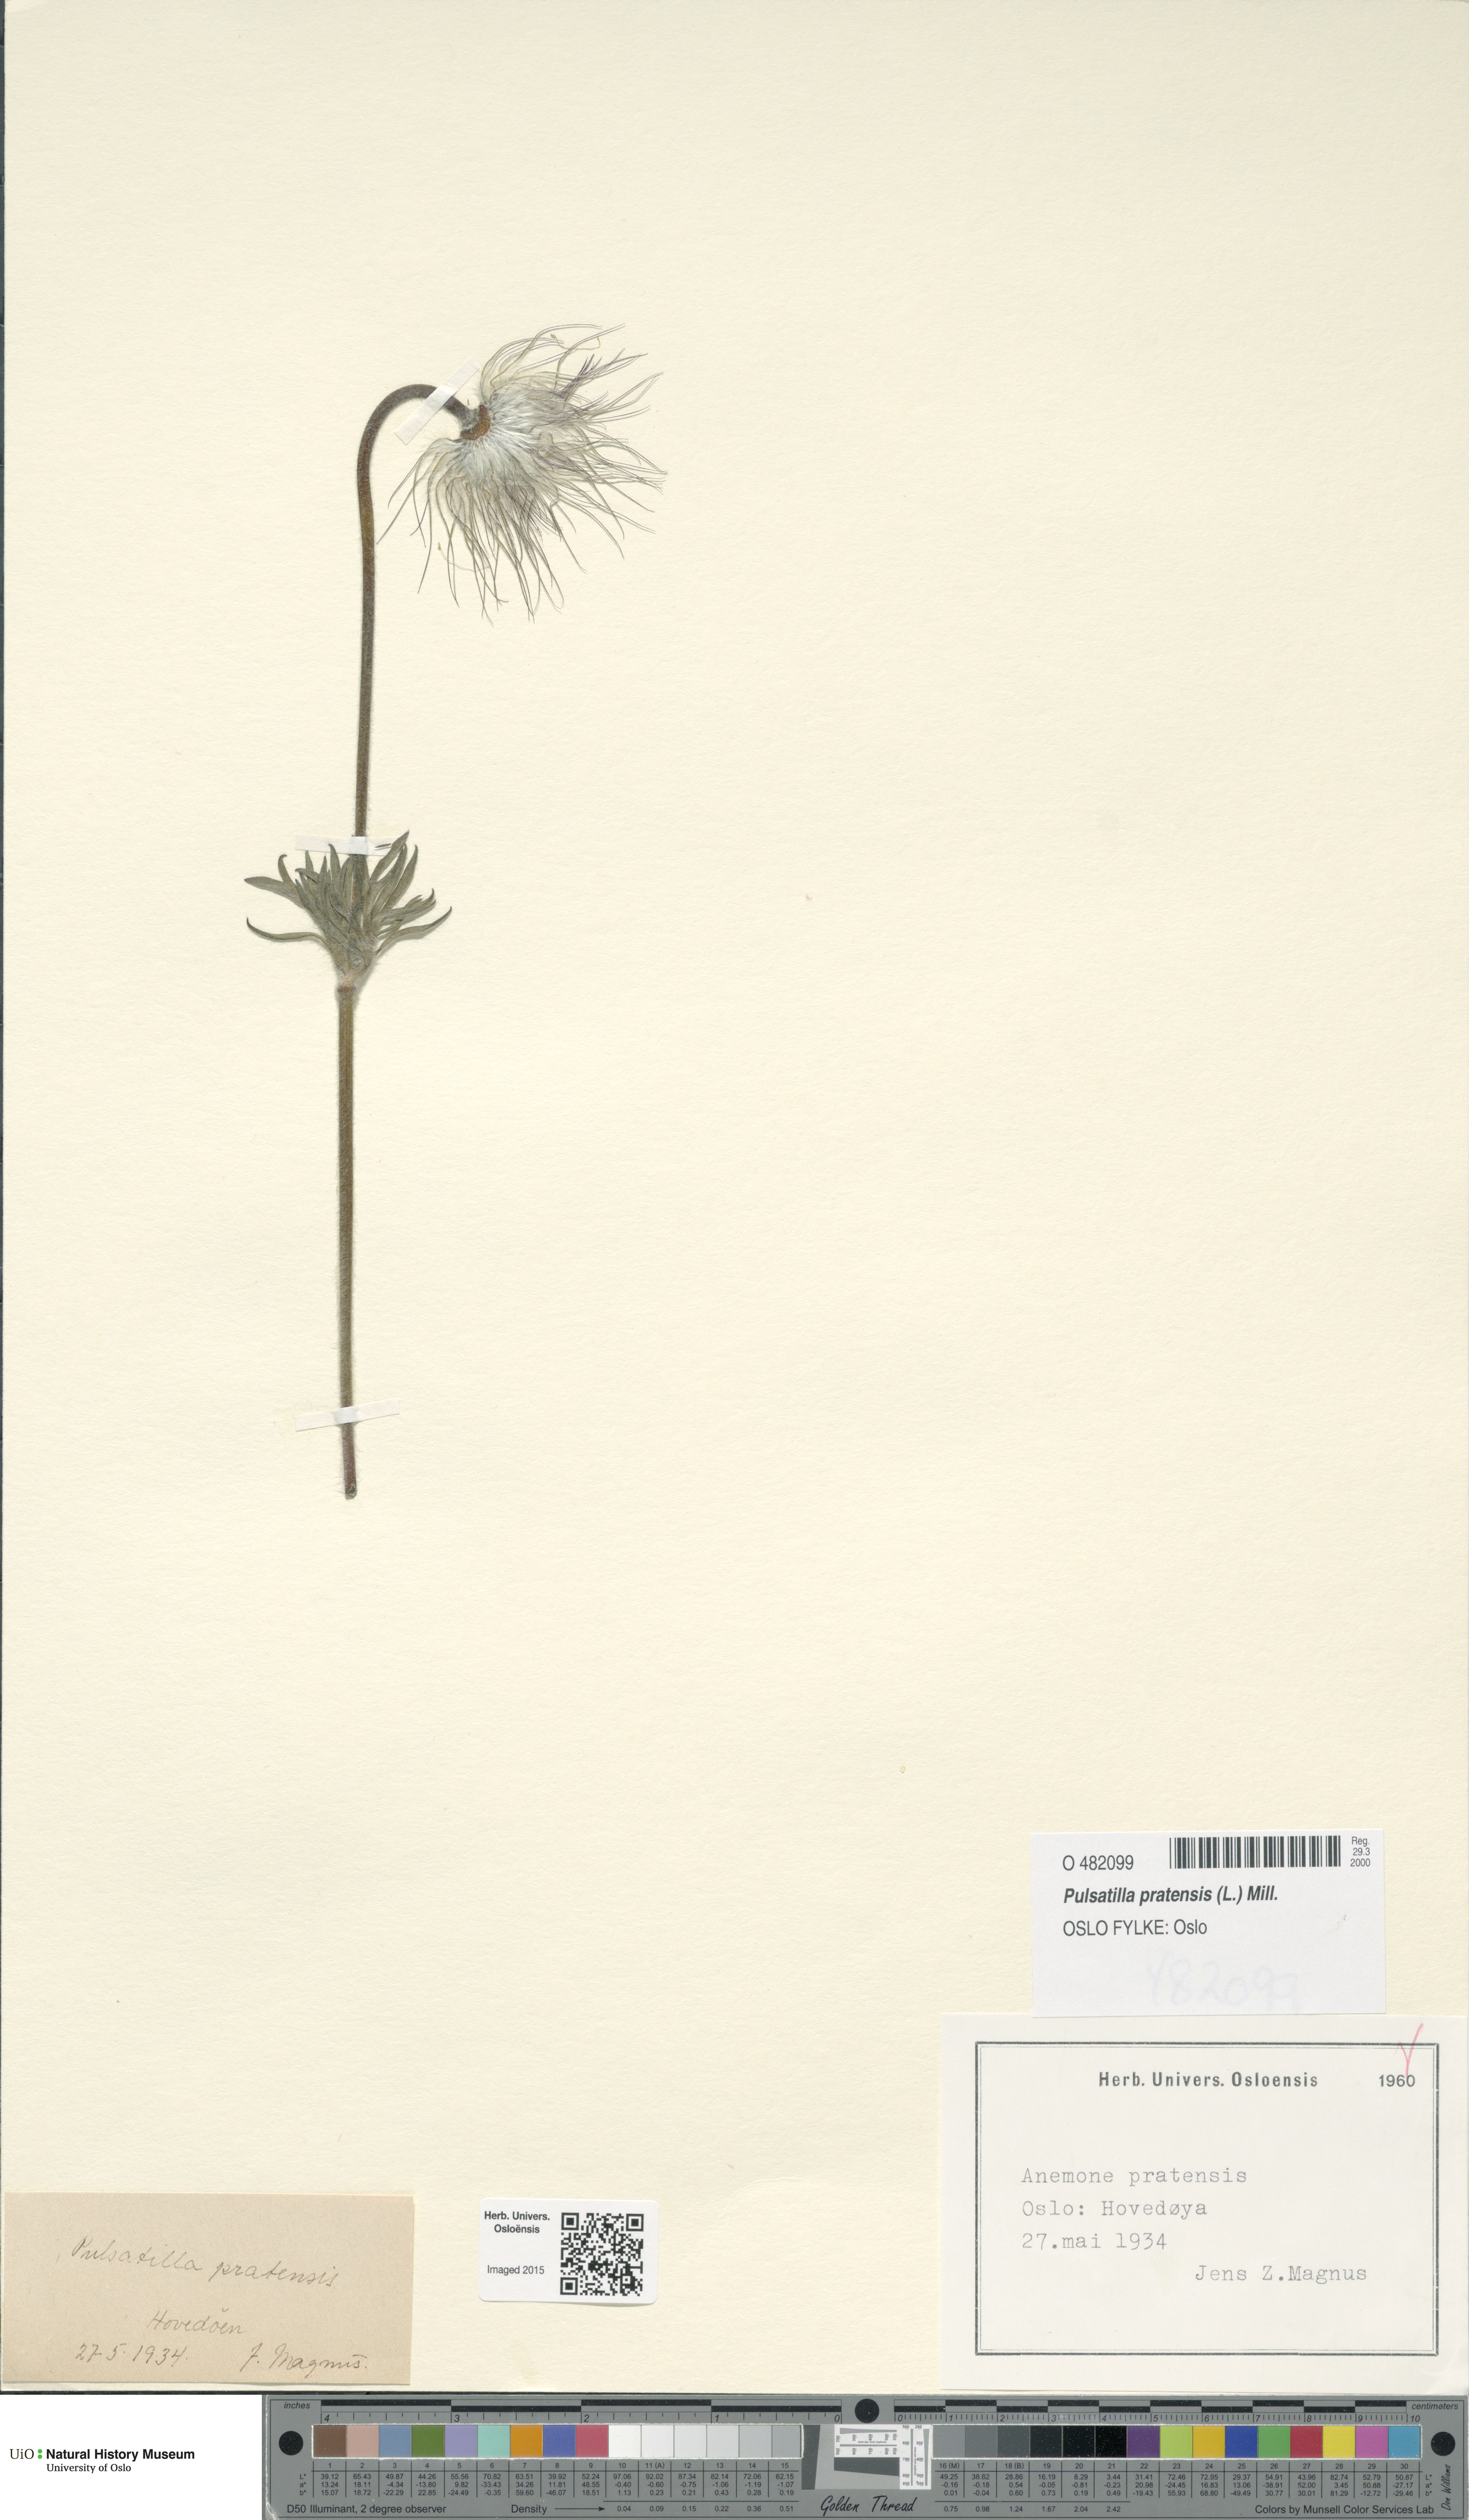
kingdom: Plantae
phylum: Tracheophyta
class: Magnoliopsida
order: Ranunculales
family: Ranunculaceae
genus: Pulsatilla
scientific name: Pulsatilla pratensis
